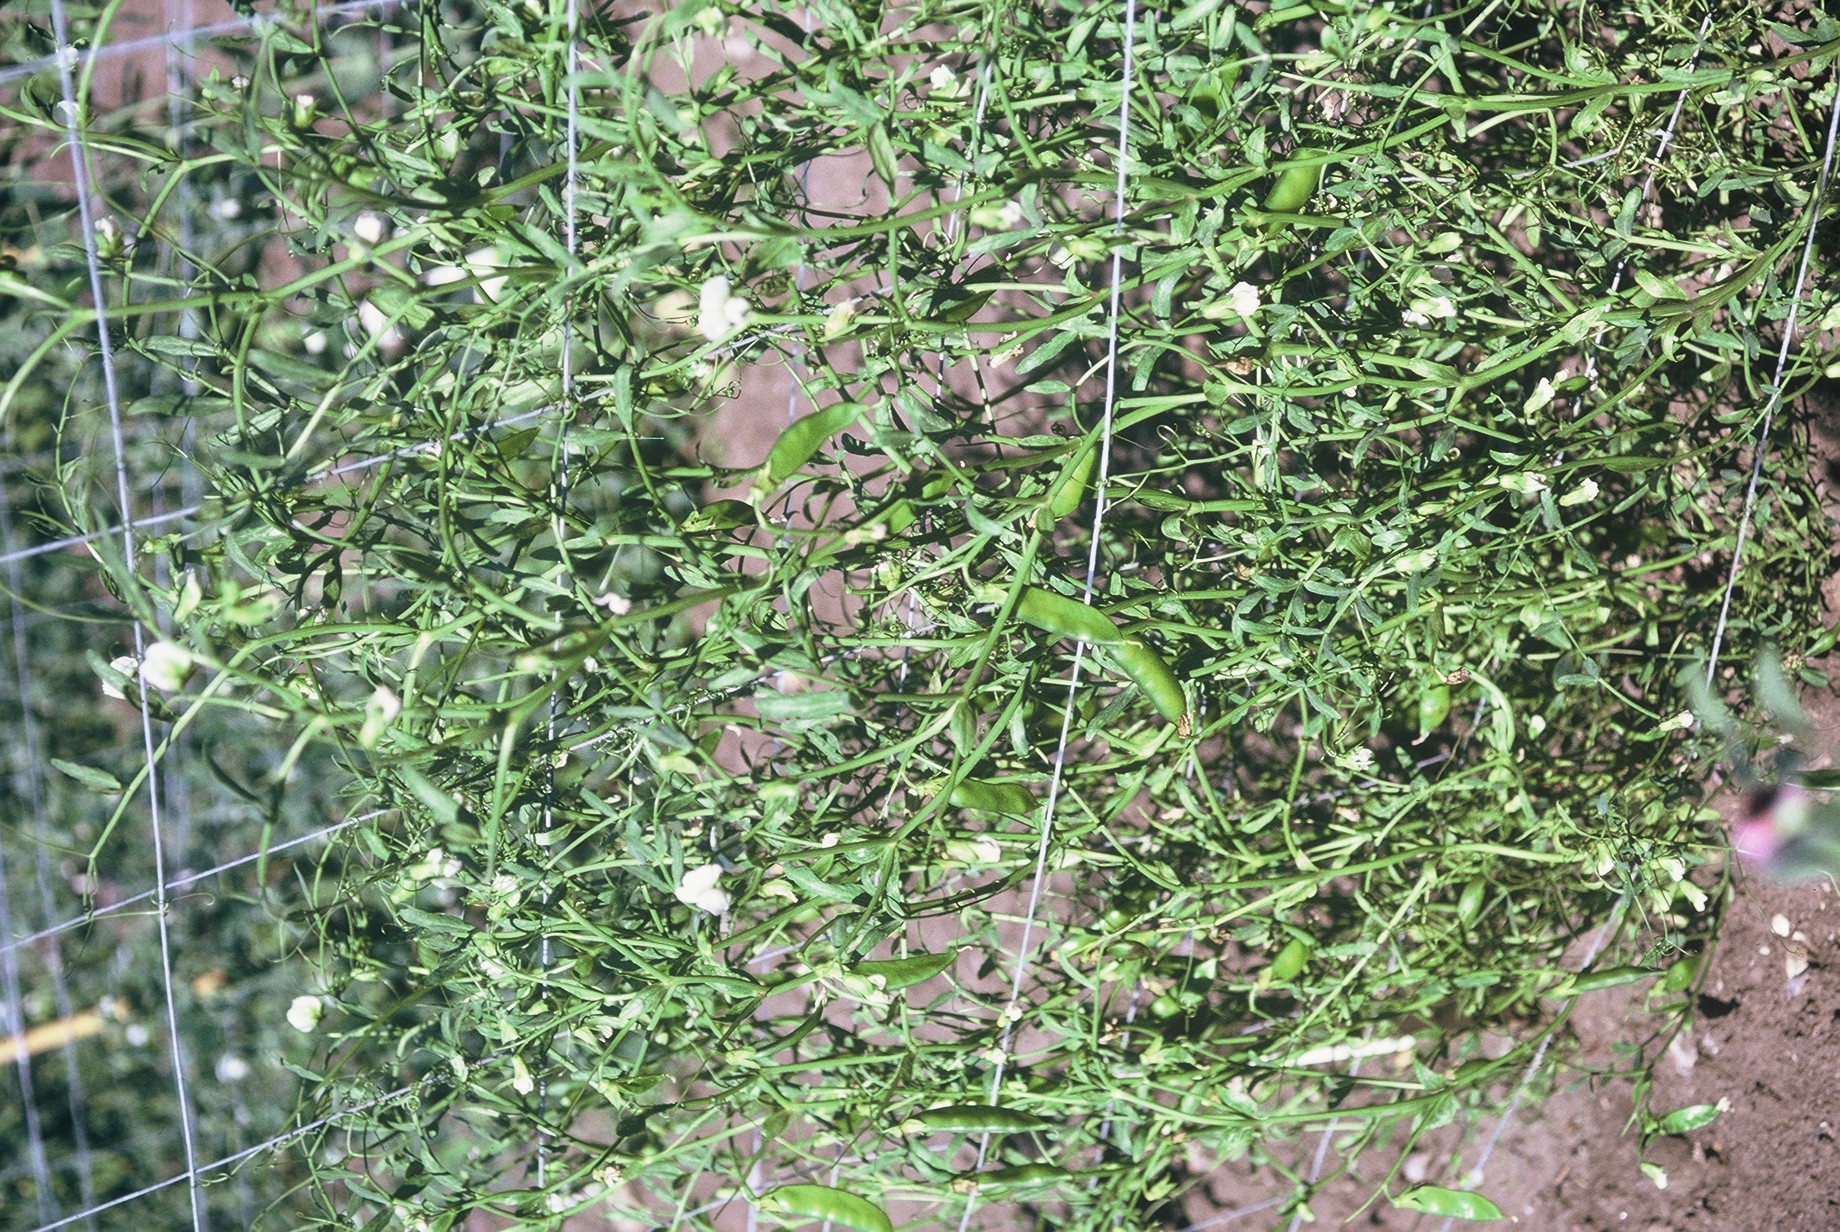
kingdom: Plantae
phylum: Tracheophyta
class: Magnoliopsida
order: Fabales
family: Fabaceae
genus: Lathyrus
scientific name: Lathyrus oleraceus
